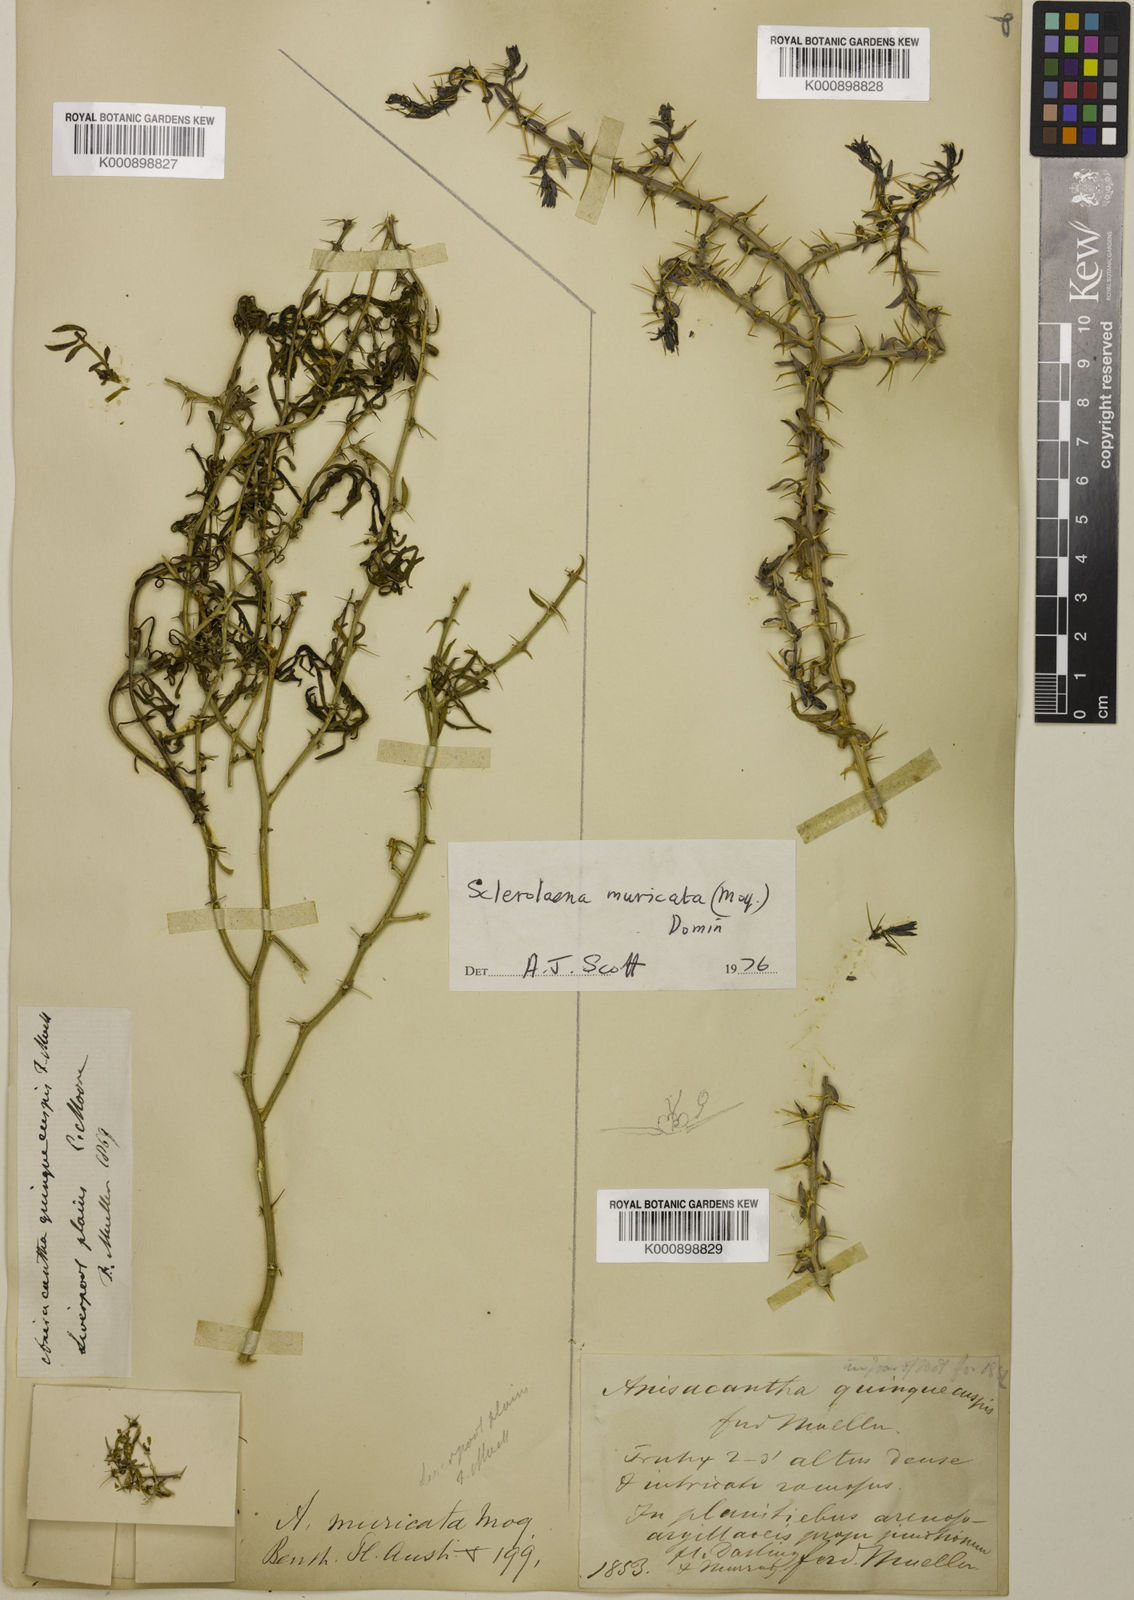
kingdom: Plantae
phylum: Tracheophyta
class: Magnoliopsida
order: Caryophyllales
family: Amaranthaceae
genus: Sclerolaena
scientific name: Sclerolaena muricata
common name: Roly-poly
